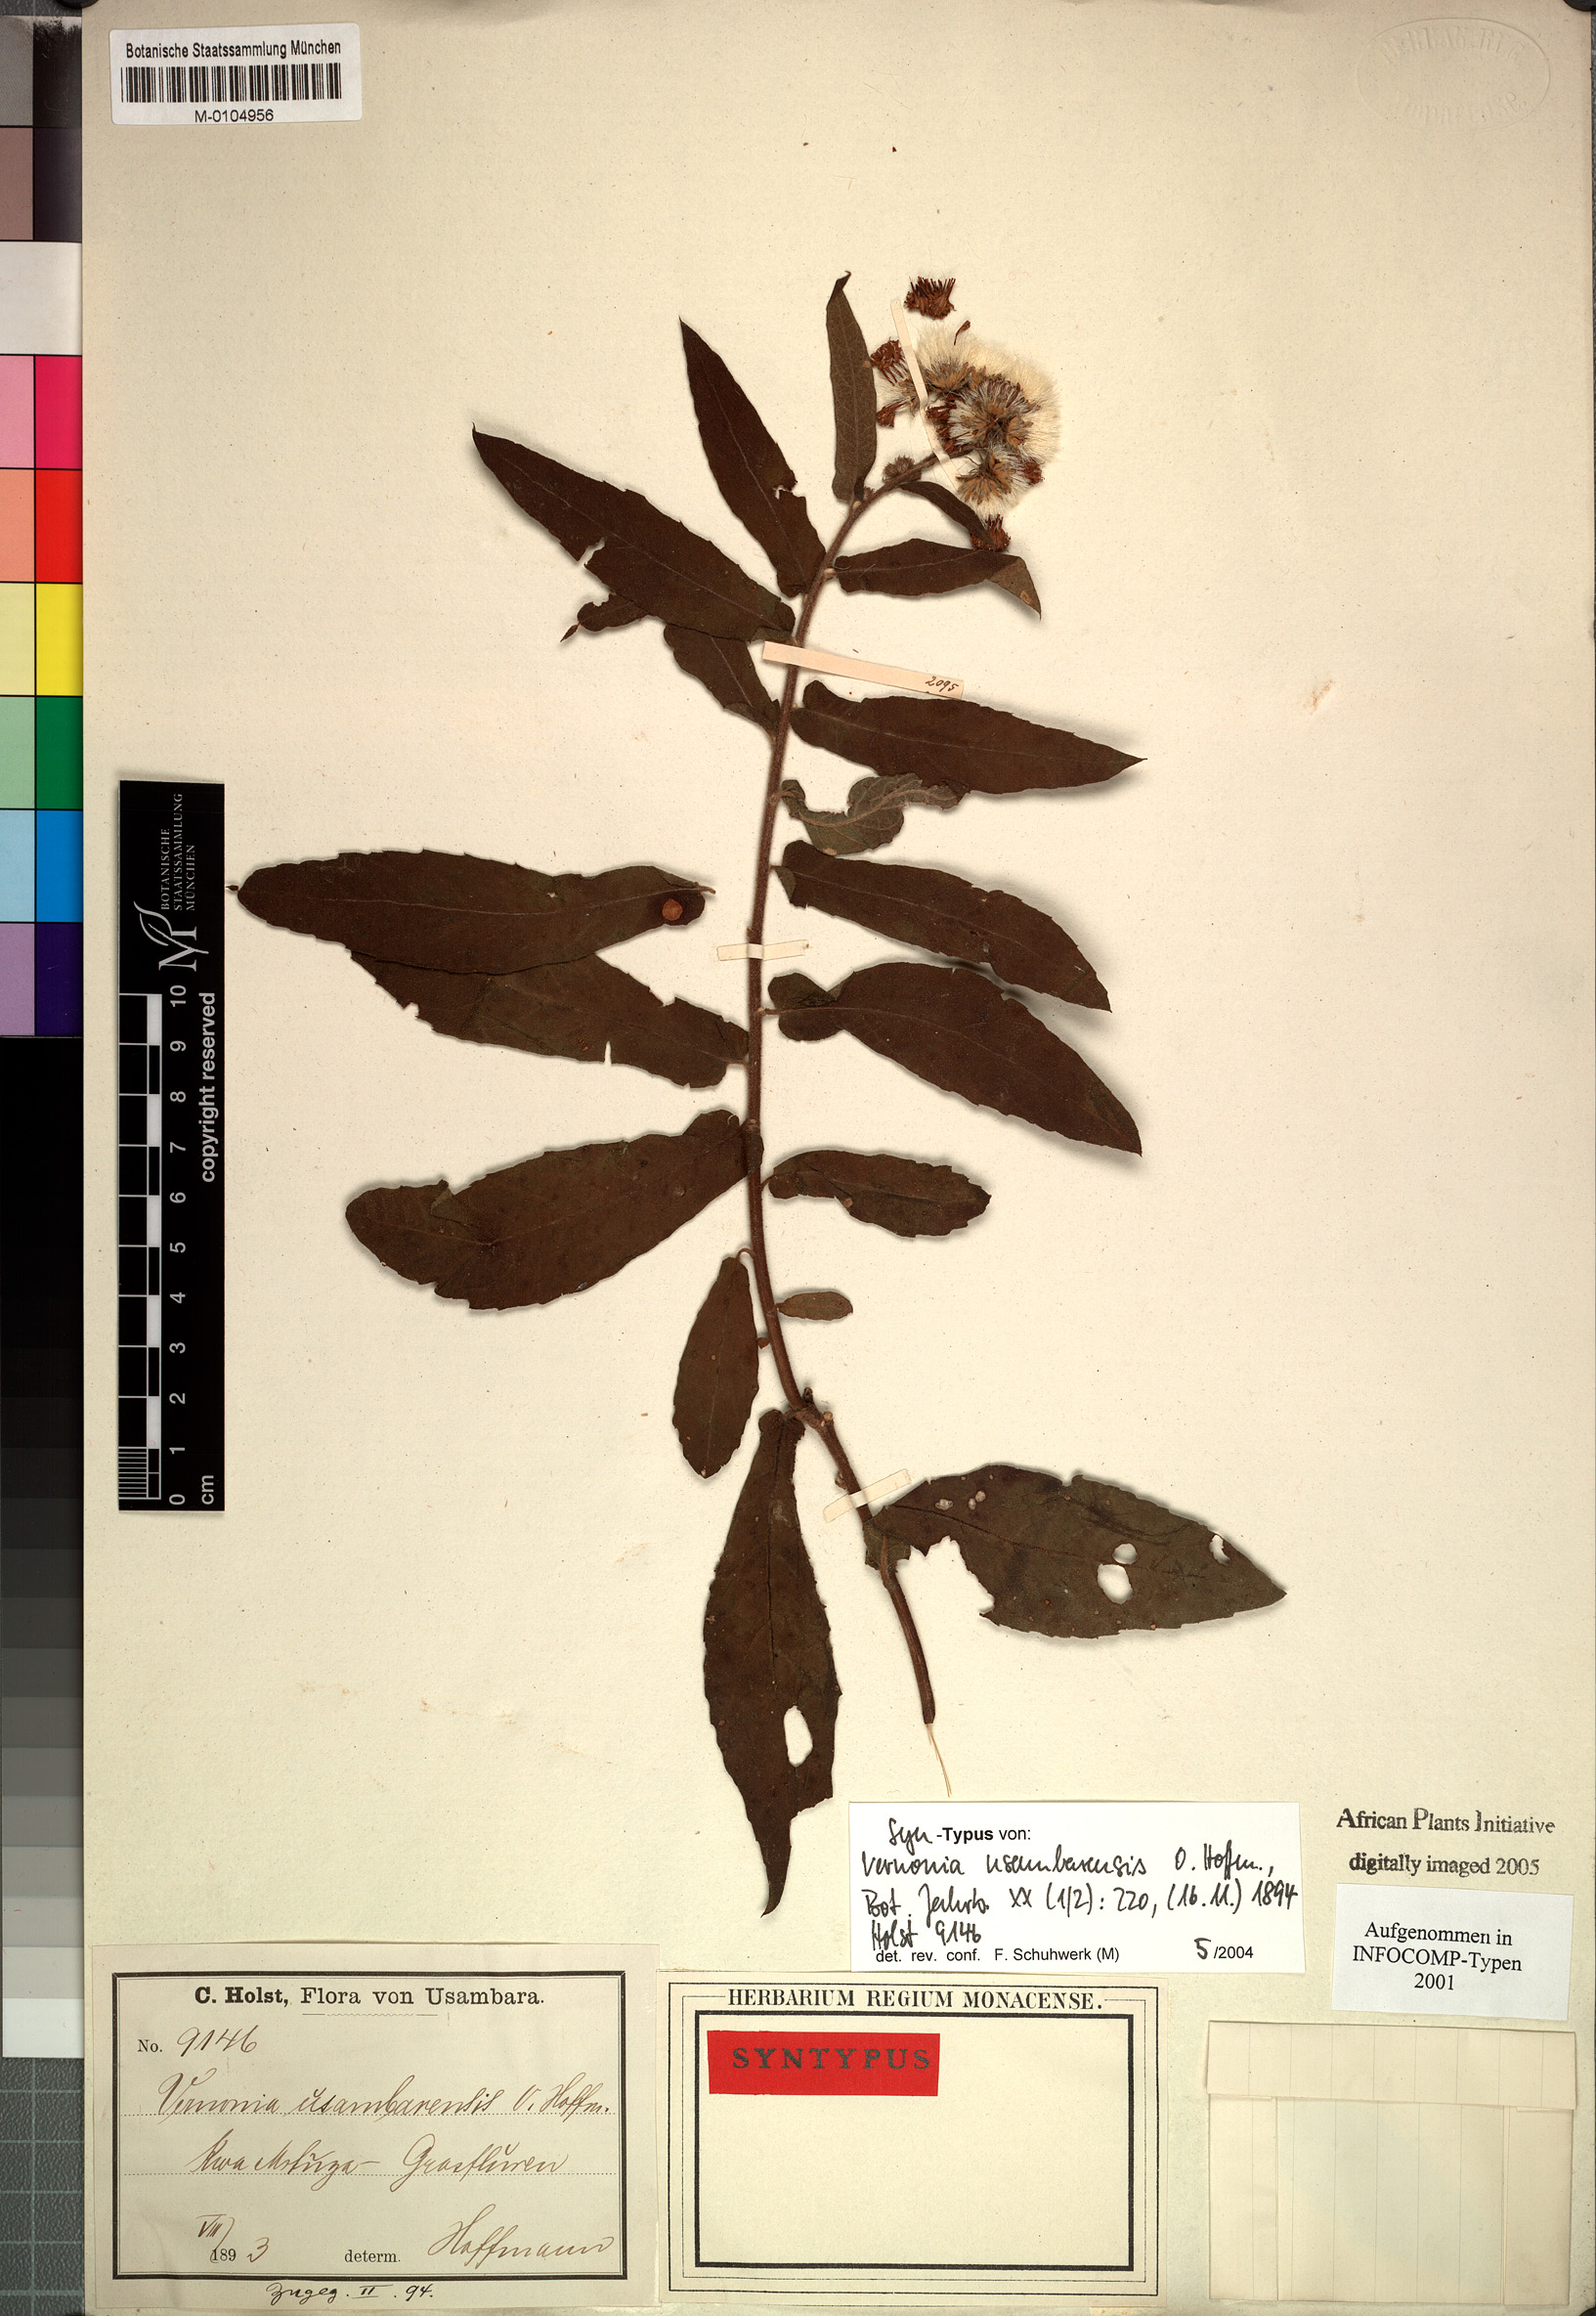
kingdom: Plantae
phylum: Tracheophyta
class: Magnoliopsida
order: Asterales
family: Asteraceae
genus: Jeffreycia
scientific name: Jeffreycia usambarensis
